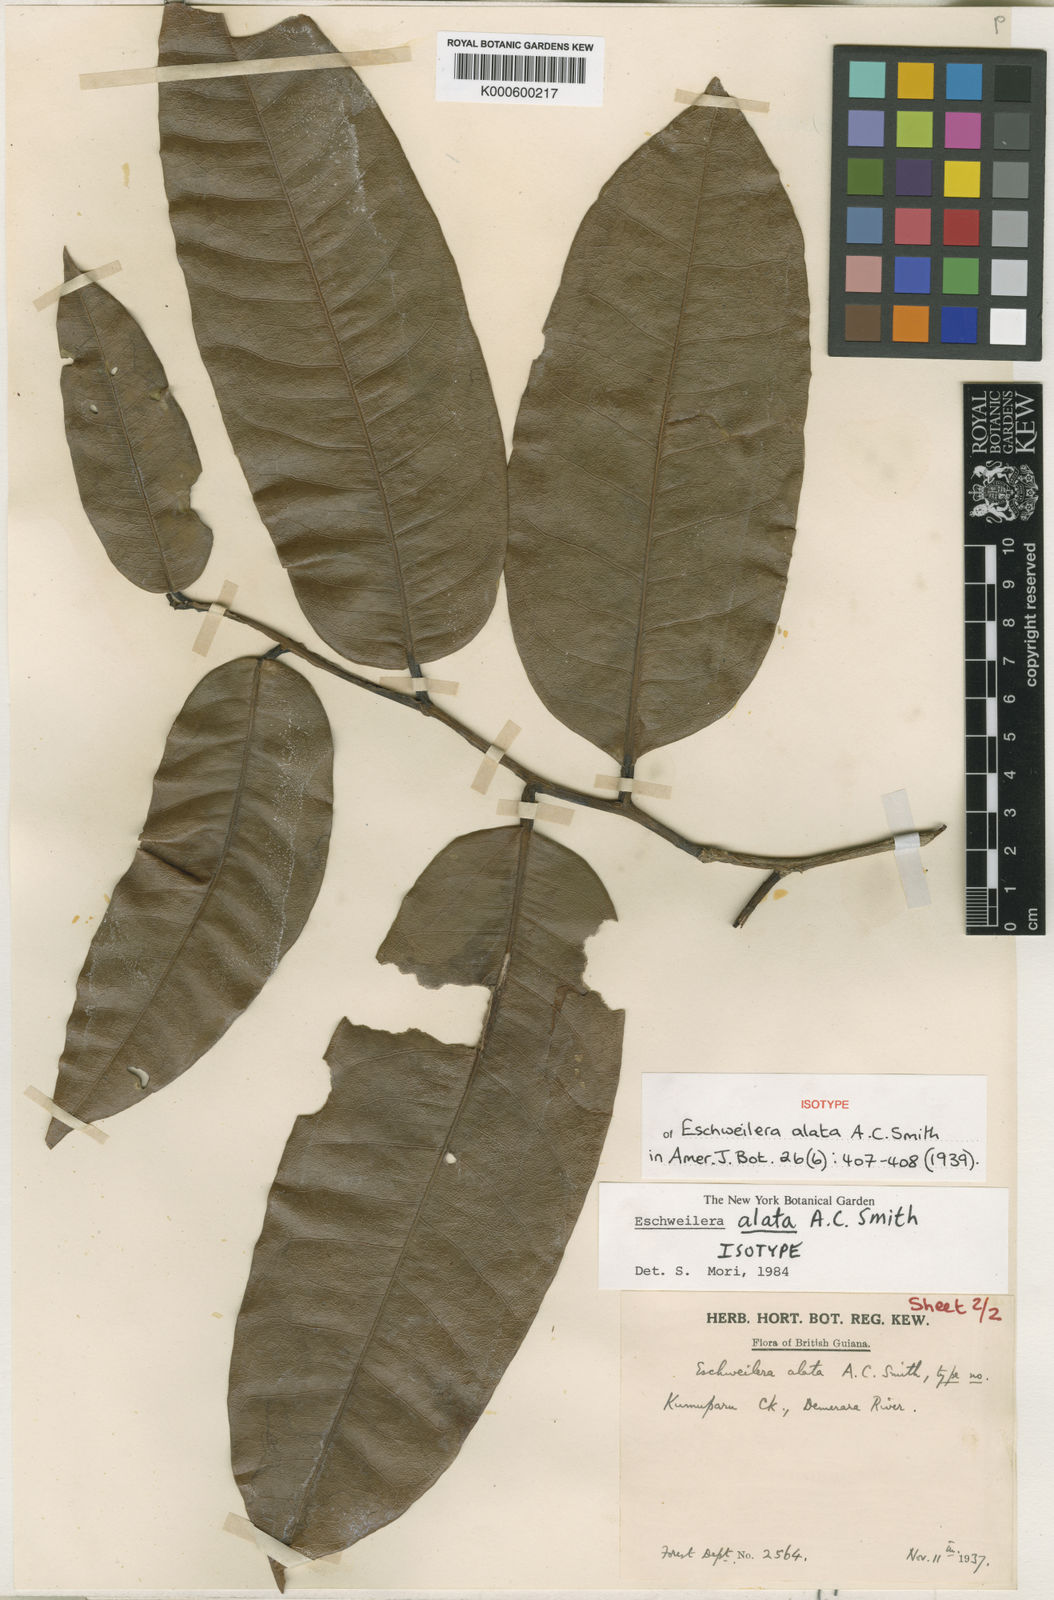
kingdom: Plantae
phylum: Tracheophyta
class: Magnoliopsida
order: Ericales
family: Lecythidaceae
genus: Eschweilera
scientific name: Eschweilera alata
